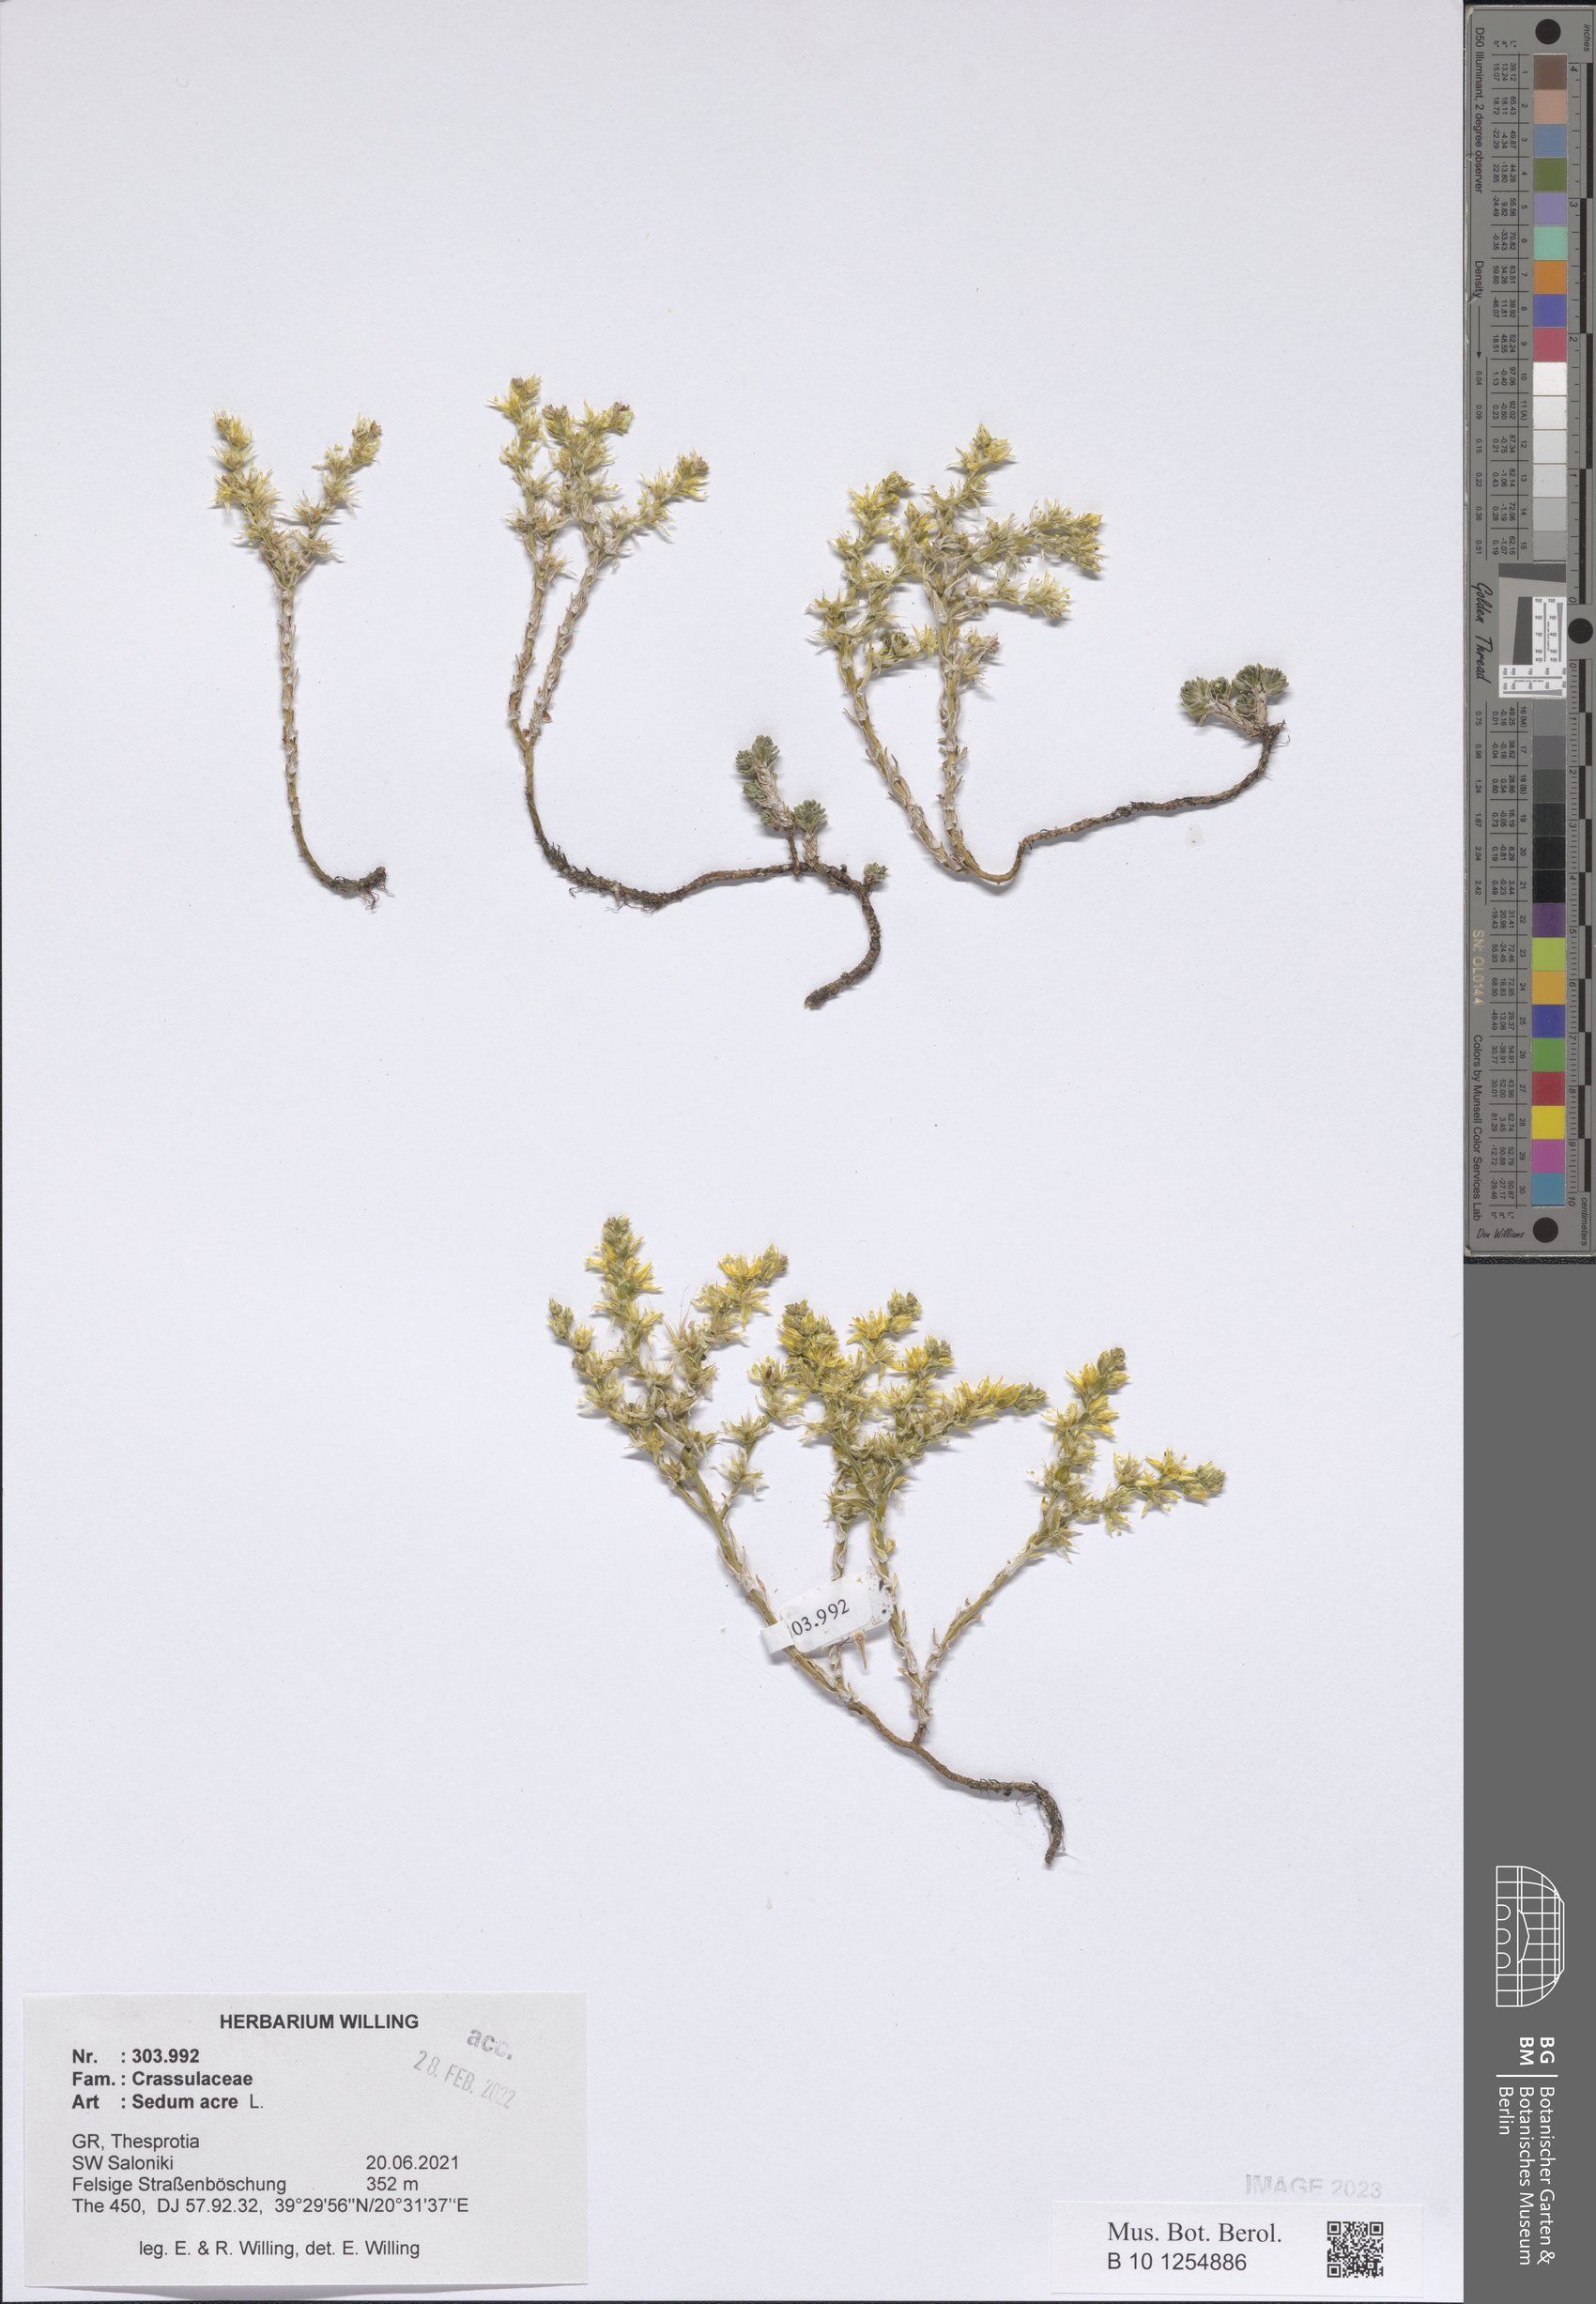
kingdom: Plantae
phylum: Tracheophyta
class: Magnoliopsida
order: Saxifragales
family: Crassulaceae
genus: Sedum
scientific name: Sedum acre
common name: Biting stonecrop
